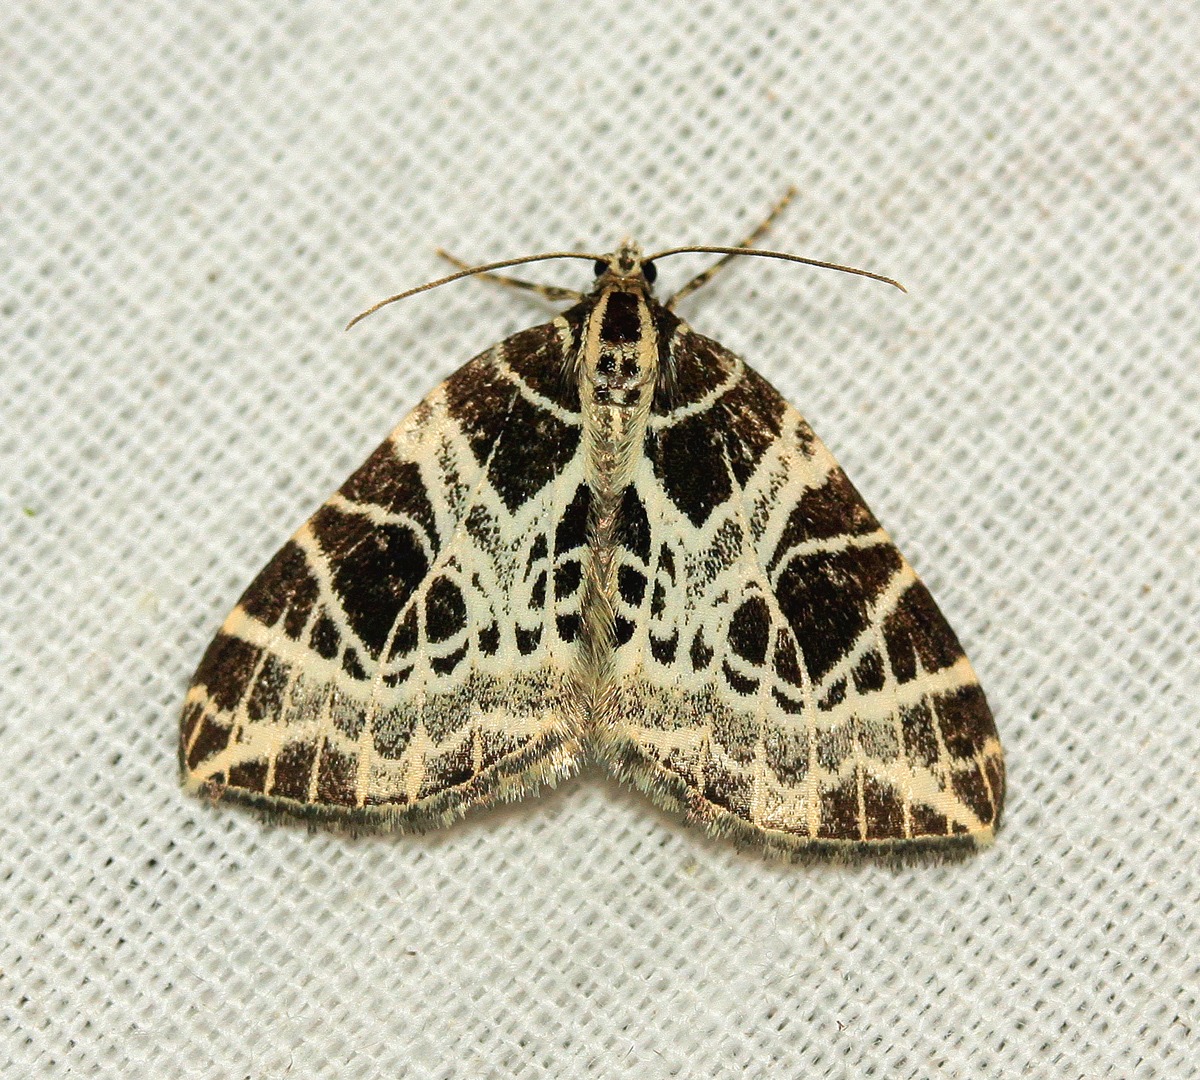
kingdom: Animalia
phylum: Arthropoda
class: Insecta
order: Lepidoptera
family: Geometridae
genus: Eustroma
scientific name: Eustroma reticulata
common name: Netåret måler
